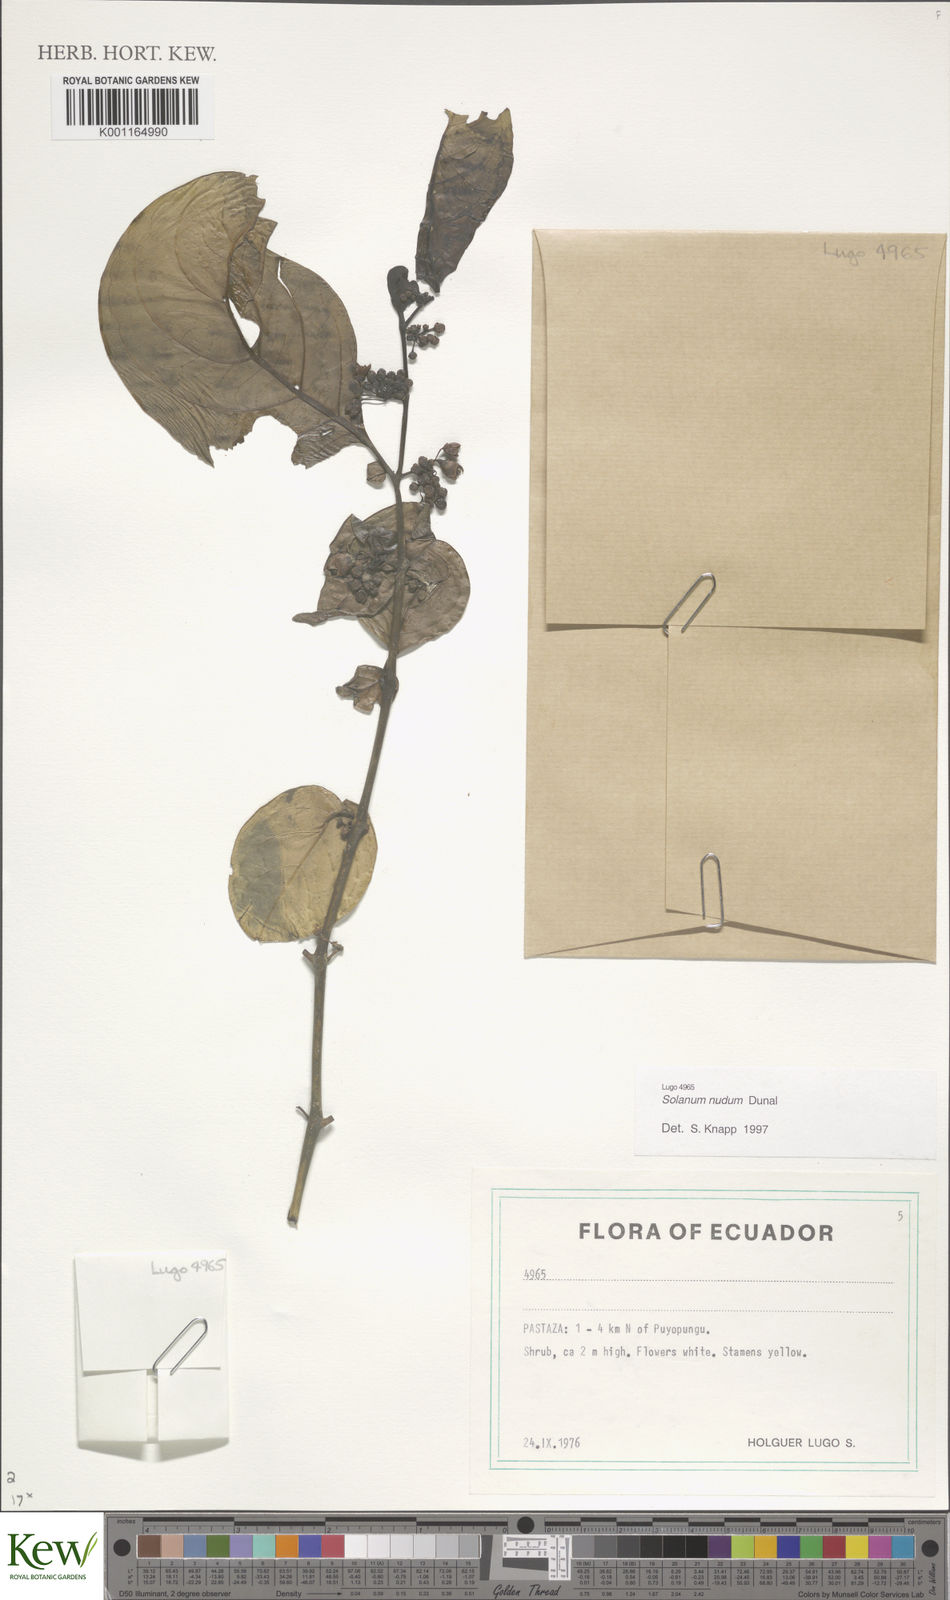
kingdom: Plantae
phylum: Tracheophyta
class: Magnoliopsida
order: Solanales
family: Solanaceae
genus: Solanum
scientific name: Solanum nudum
